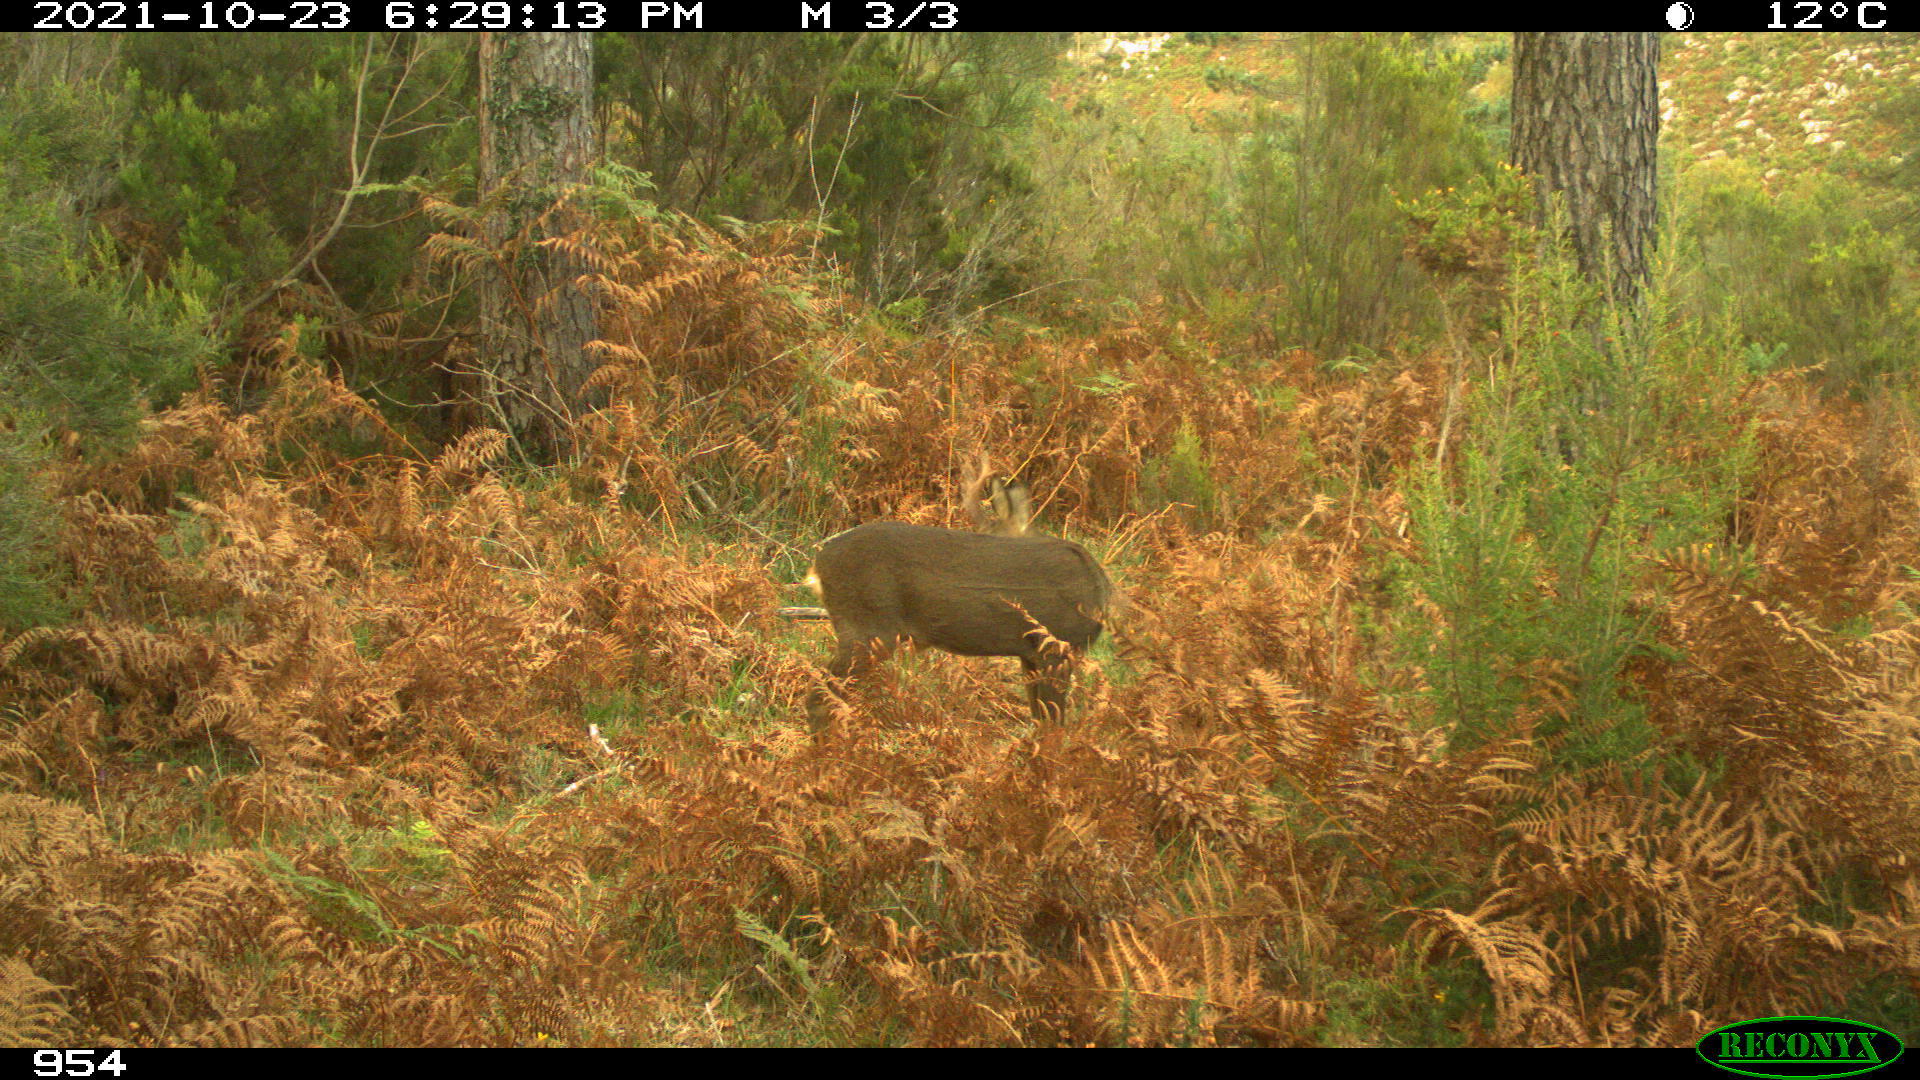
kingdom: Animalia
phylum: Chordata
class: Mammalia
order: Artiodactyla
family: Cervidae
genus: Capreolus
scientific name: Capreolus capreolus
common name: Western roe deer
